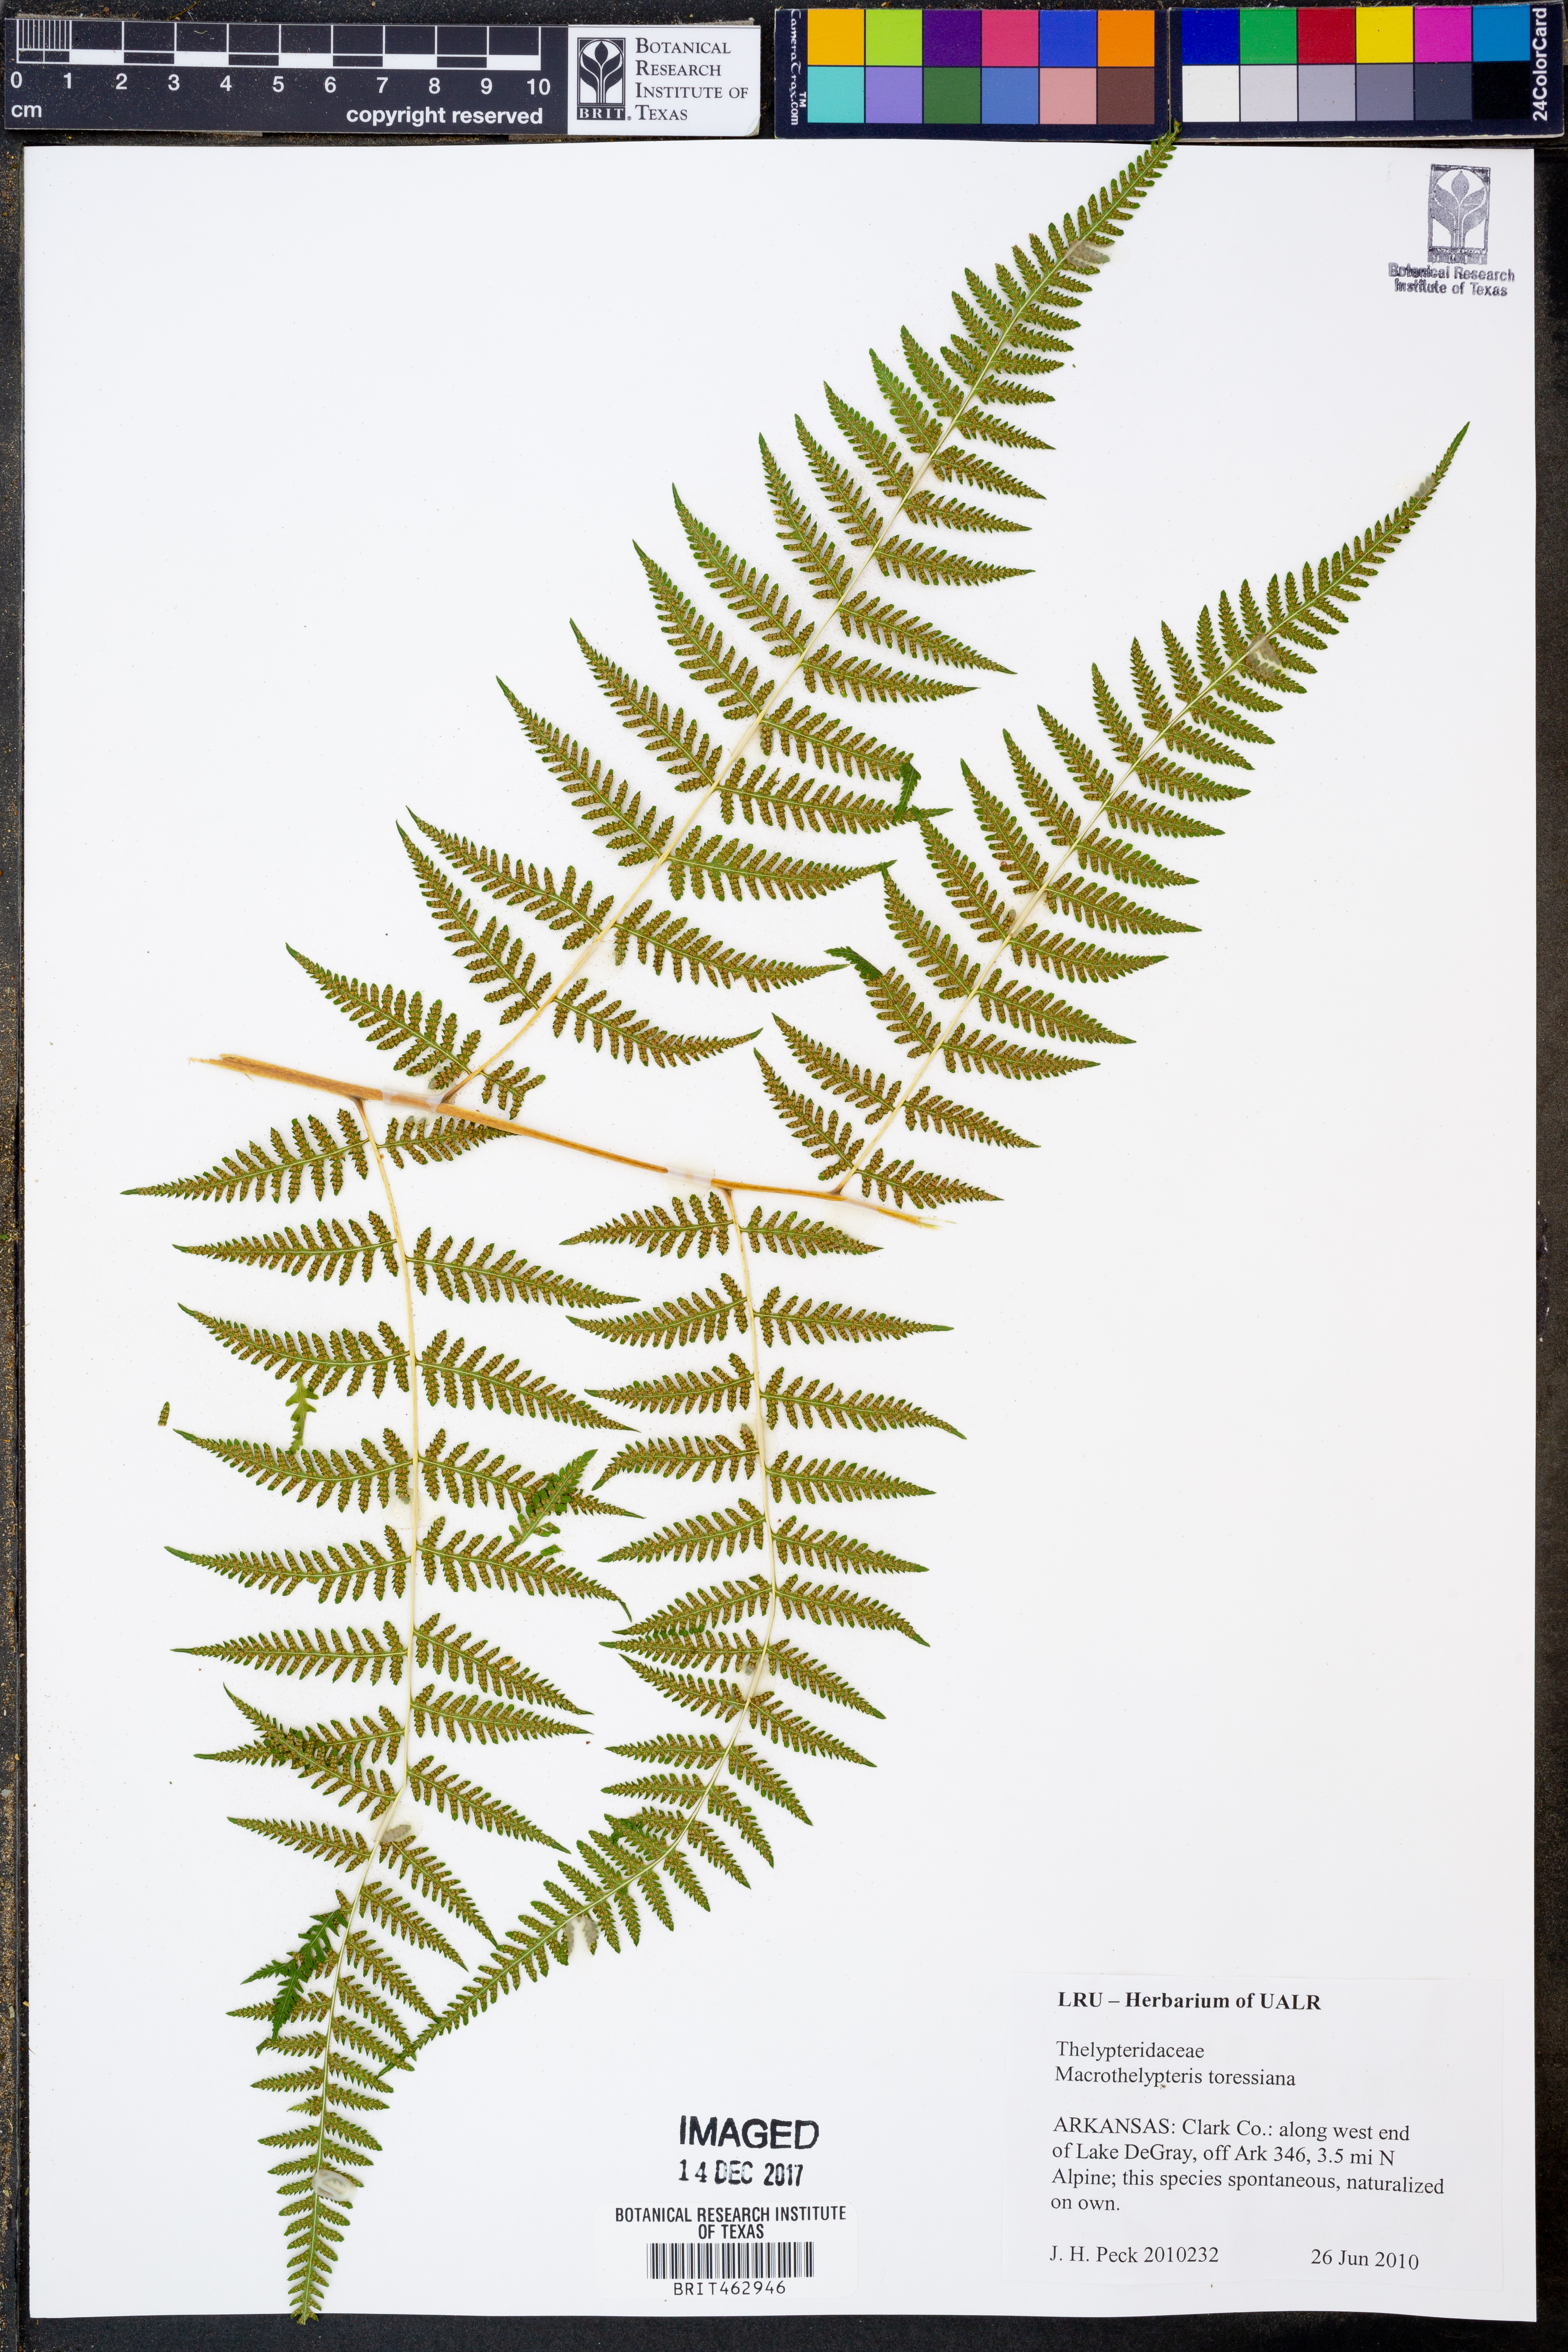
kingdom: Plantae
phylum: Tracheophyta
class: Polypodiopsida
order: Polypodiales
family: Thelypteridaceae
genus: Macrothelypteris
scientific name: Macrothelypteris torresiana
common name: Swordfern
